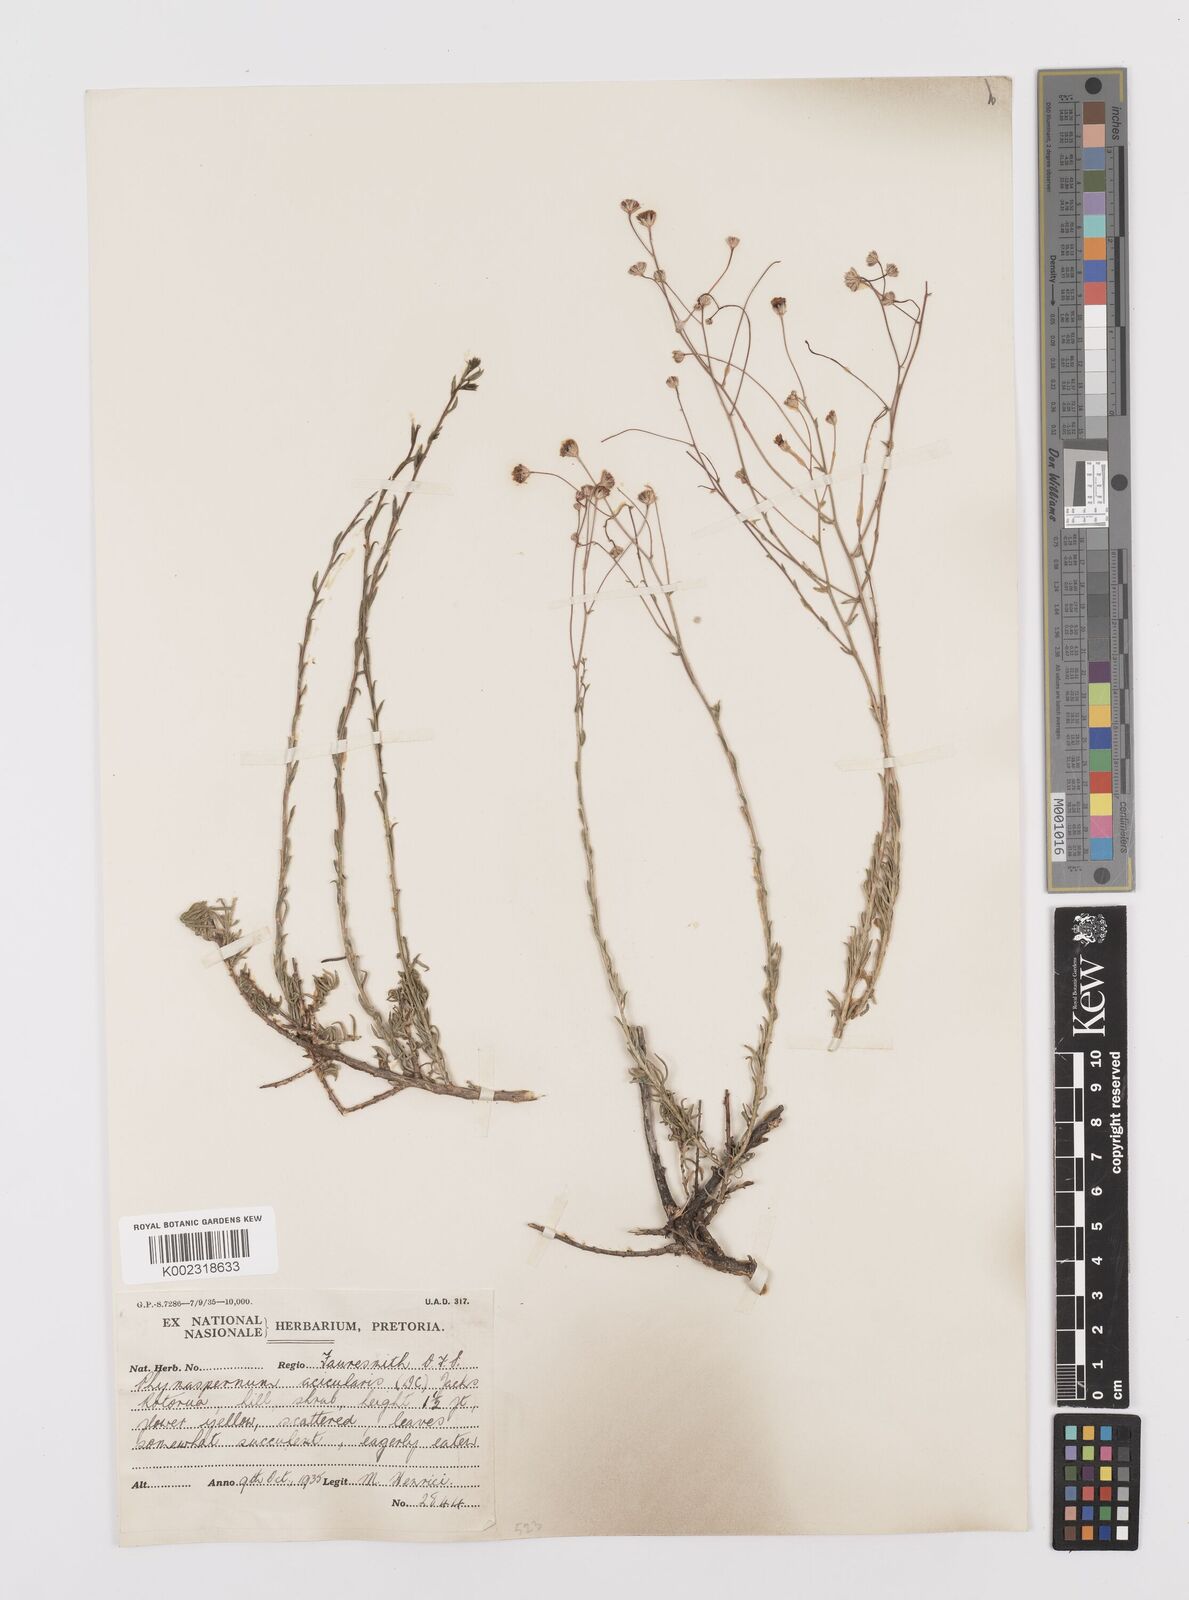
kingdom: Plantae
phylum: Tracheophyta
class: Magnoliopsida
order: Asterales
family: Asteraceae
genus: Phymaspermum
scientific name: Phymaspermum aciculare
